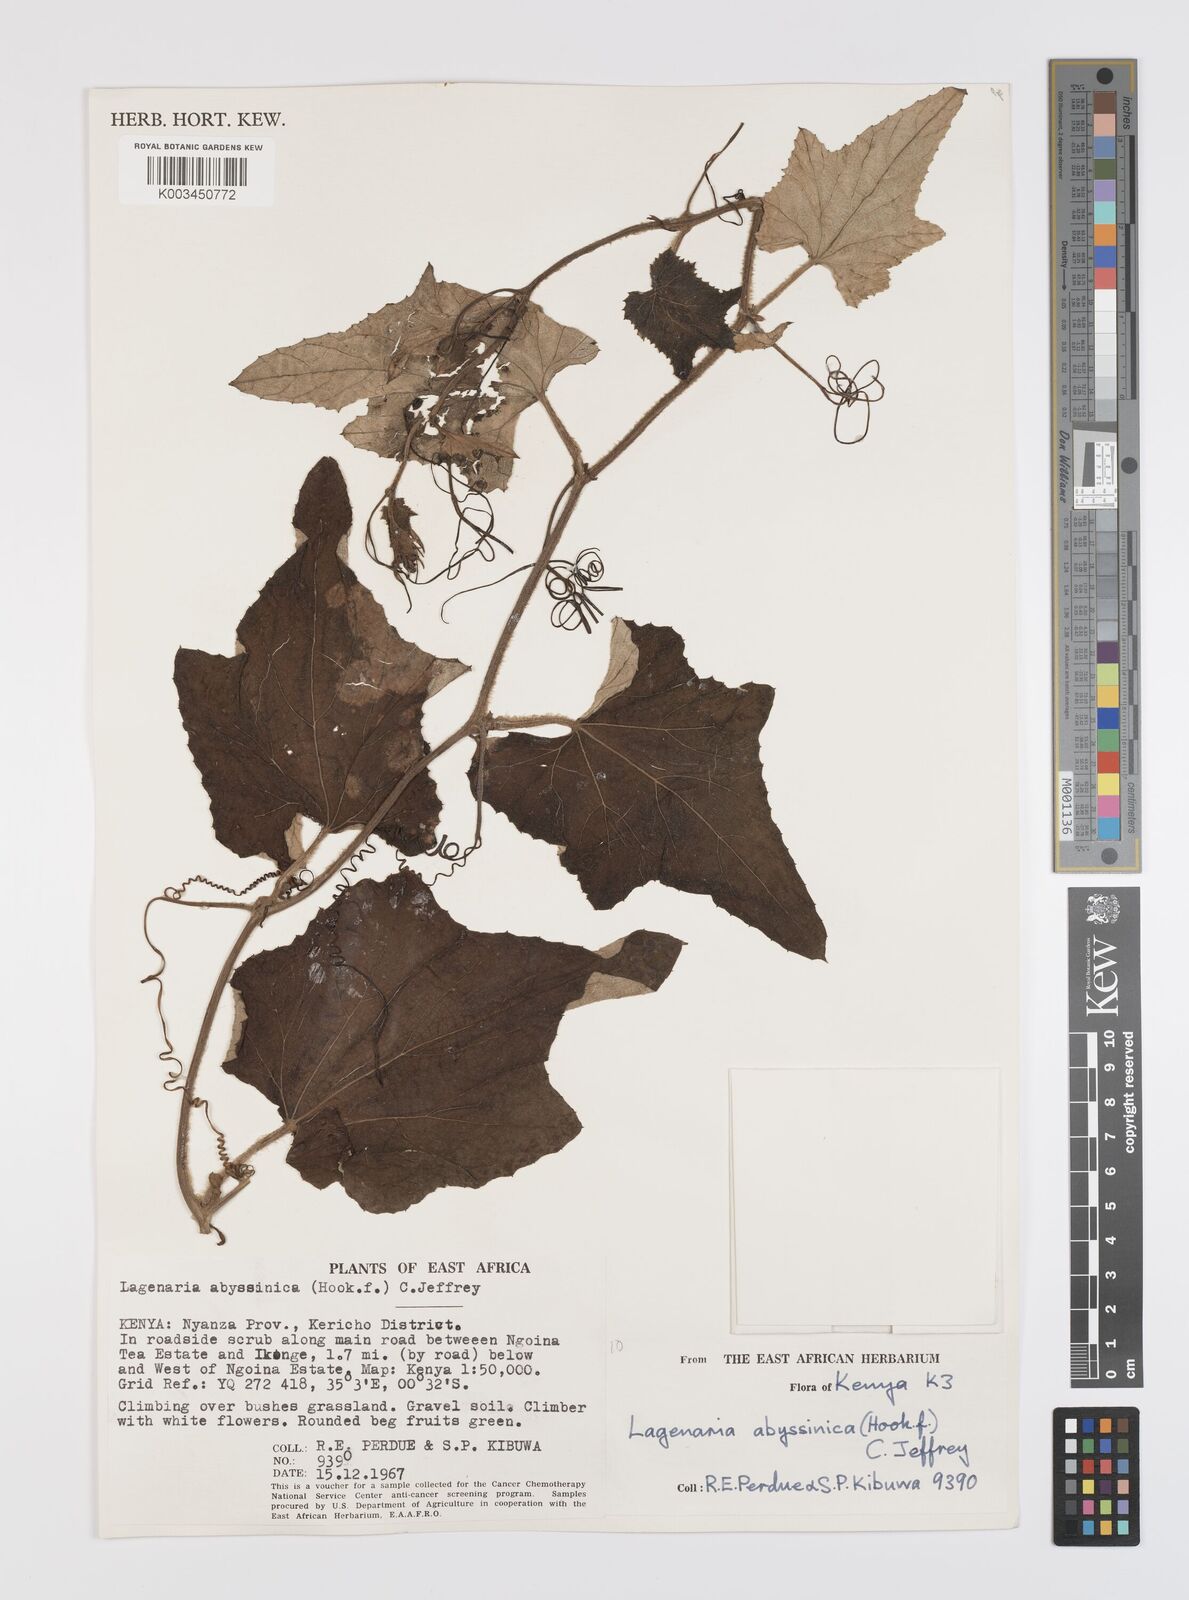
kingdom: Plantae
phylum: Tracheophyta
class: Magnoliopsida
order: Cucurbitales
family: Cucurbitaceae
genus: Lagenaria
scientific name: Lagenaria abyssinica
